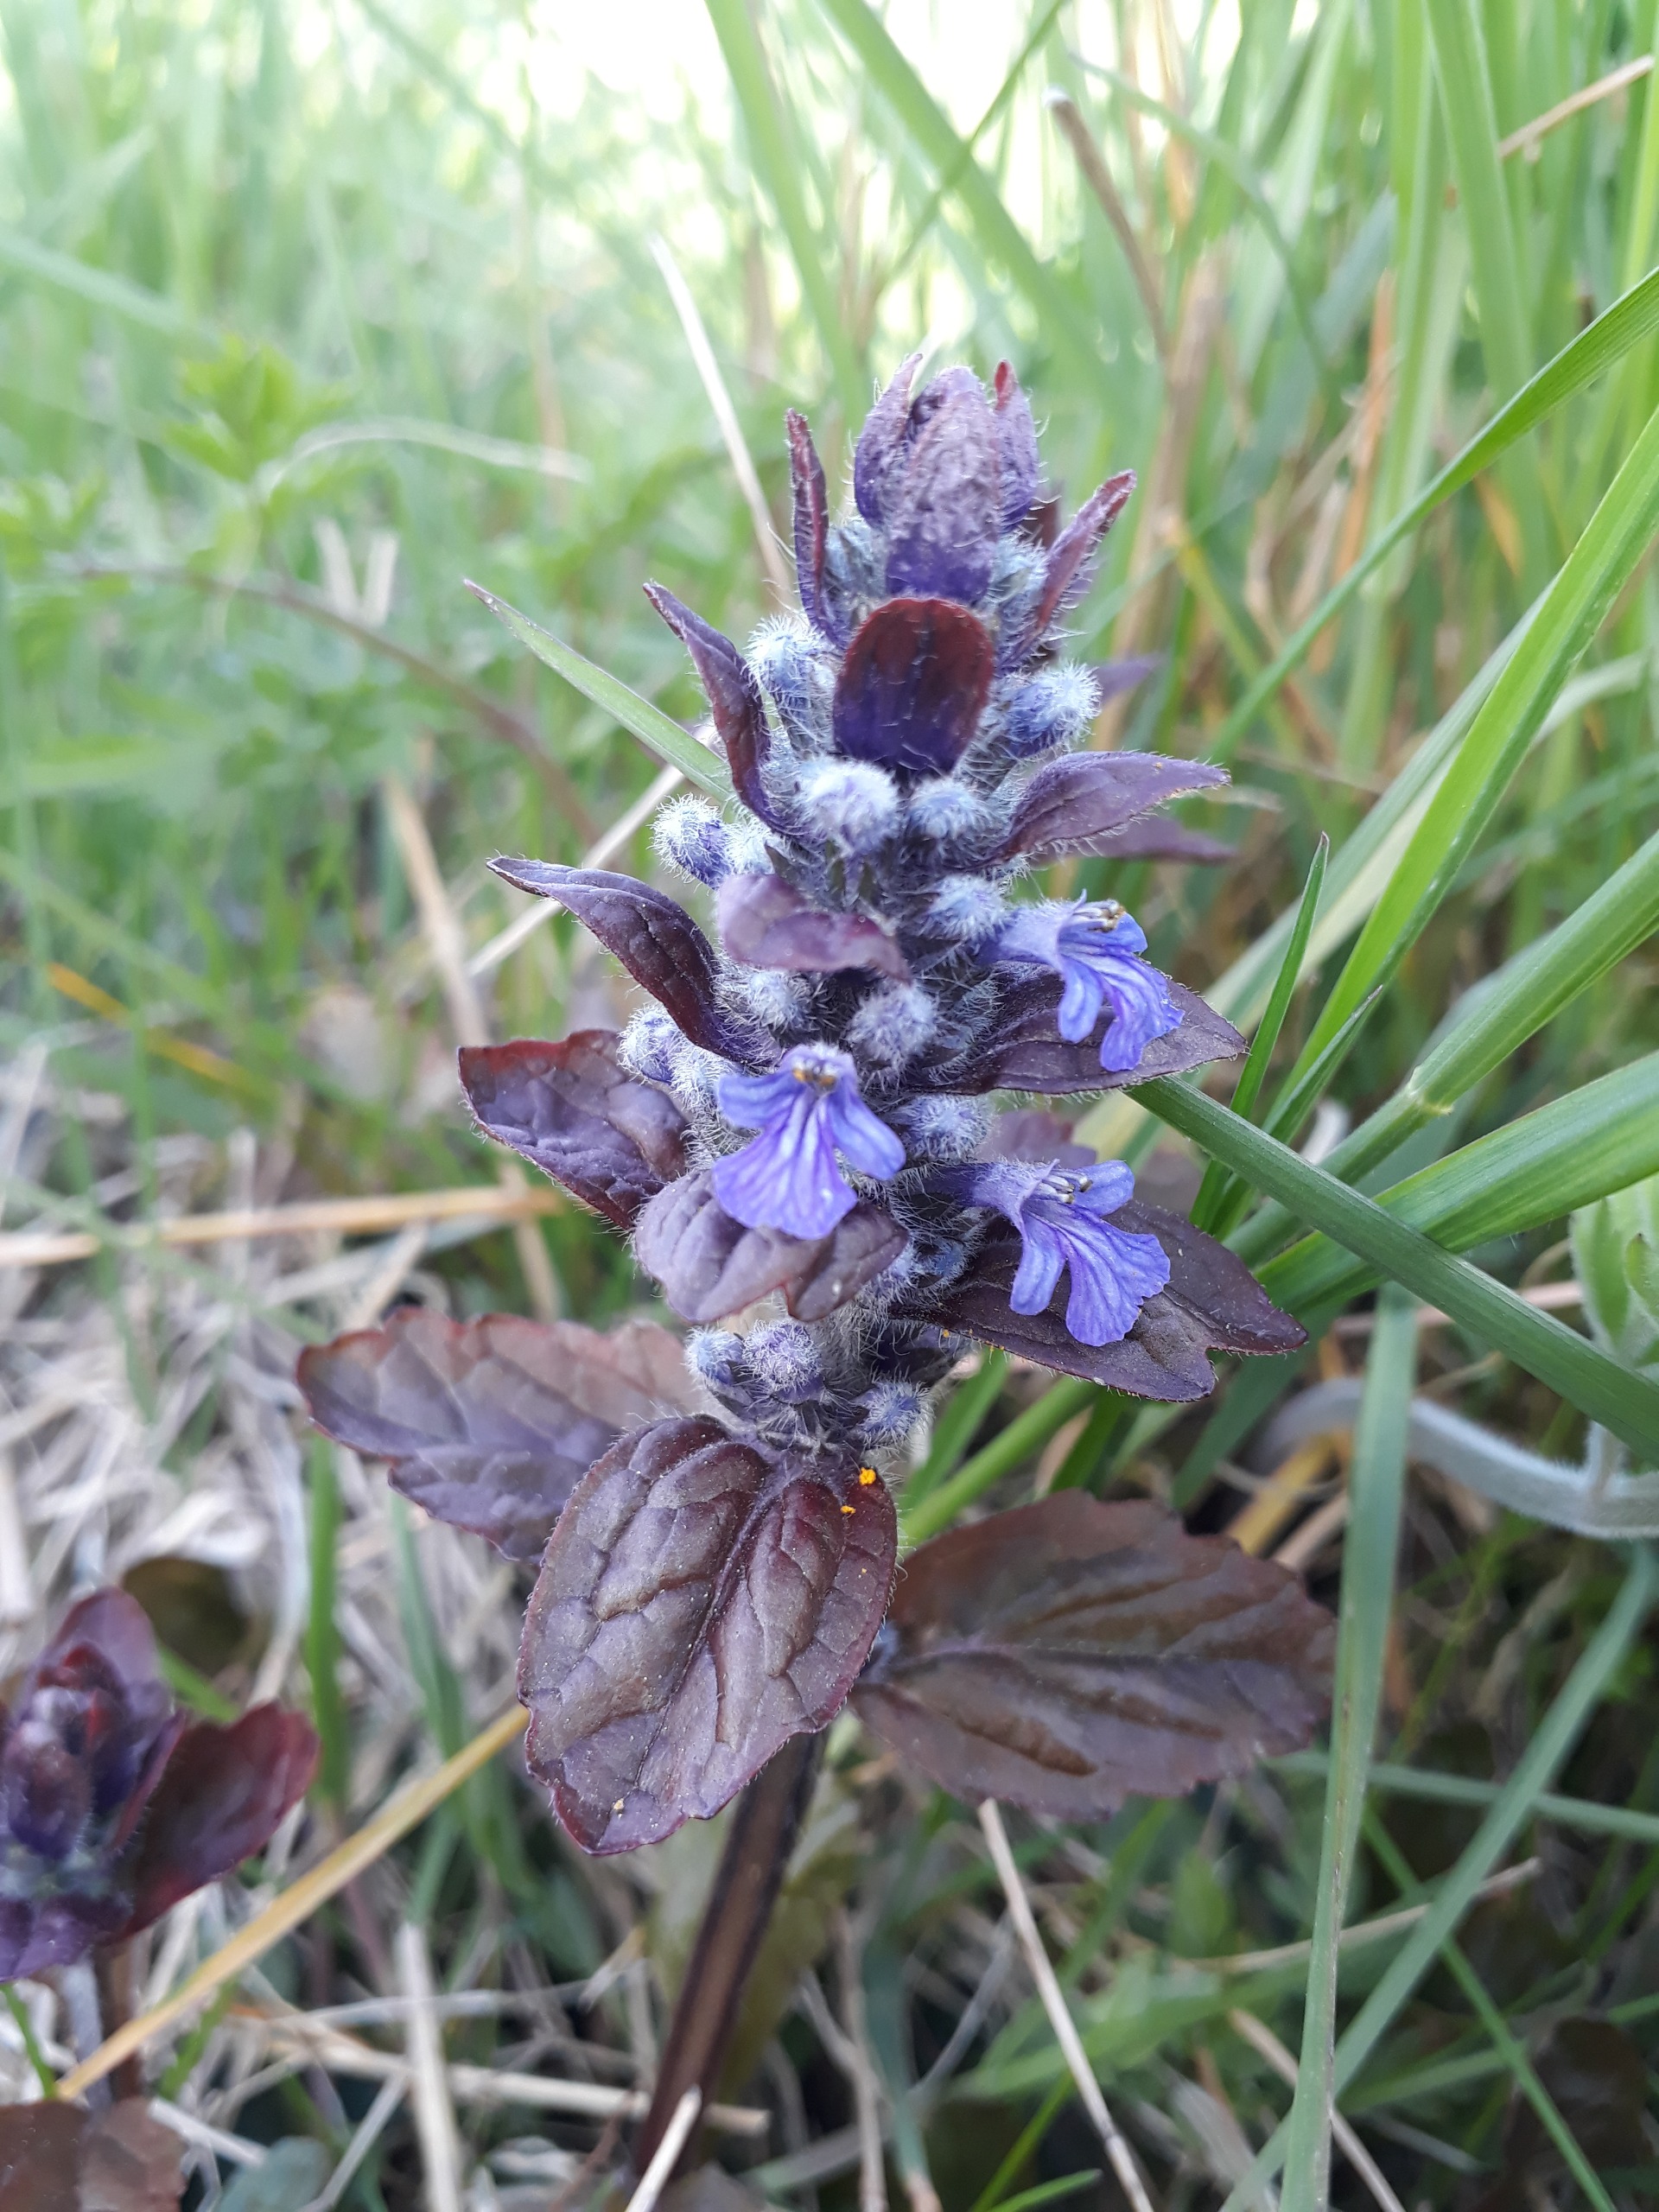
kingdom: Plantae
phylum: Tracheophyta
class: Magnoliopsida
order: Lamiales
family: Lamiaceae
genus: Ajuga
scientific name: Ajuga reptans
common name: Krybende læbeløs
